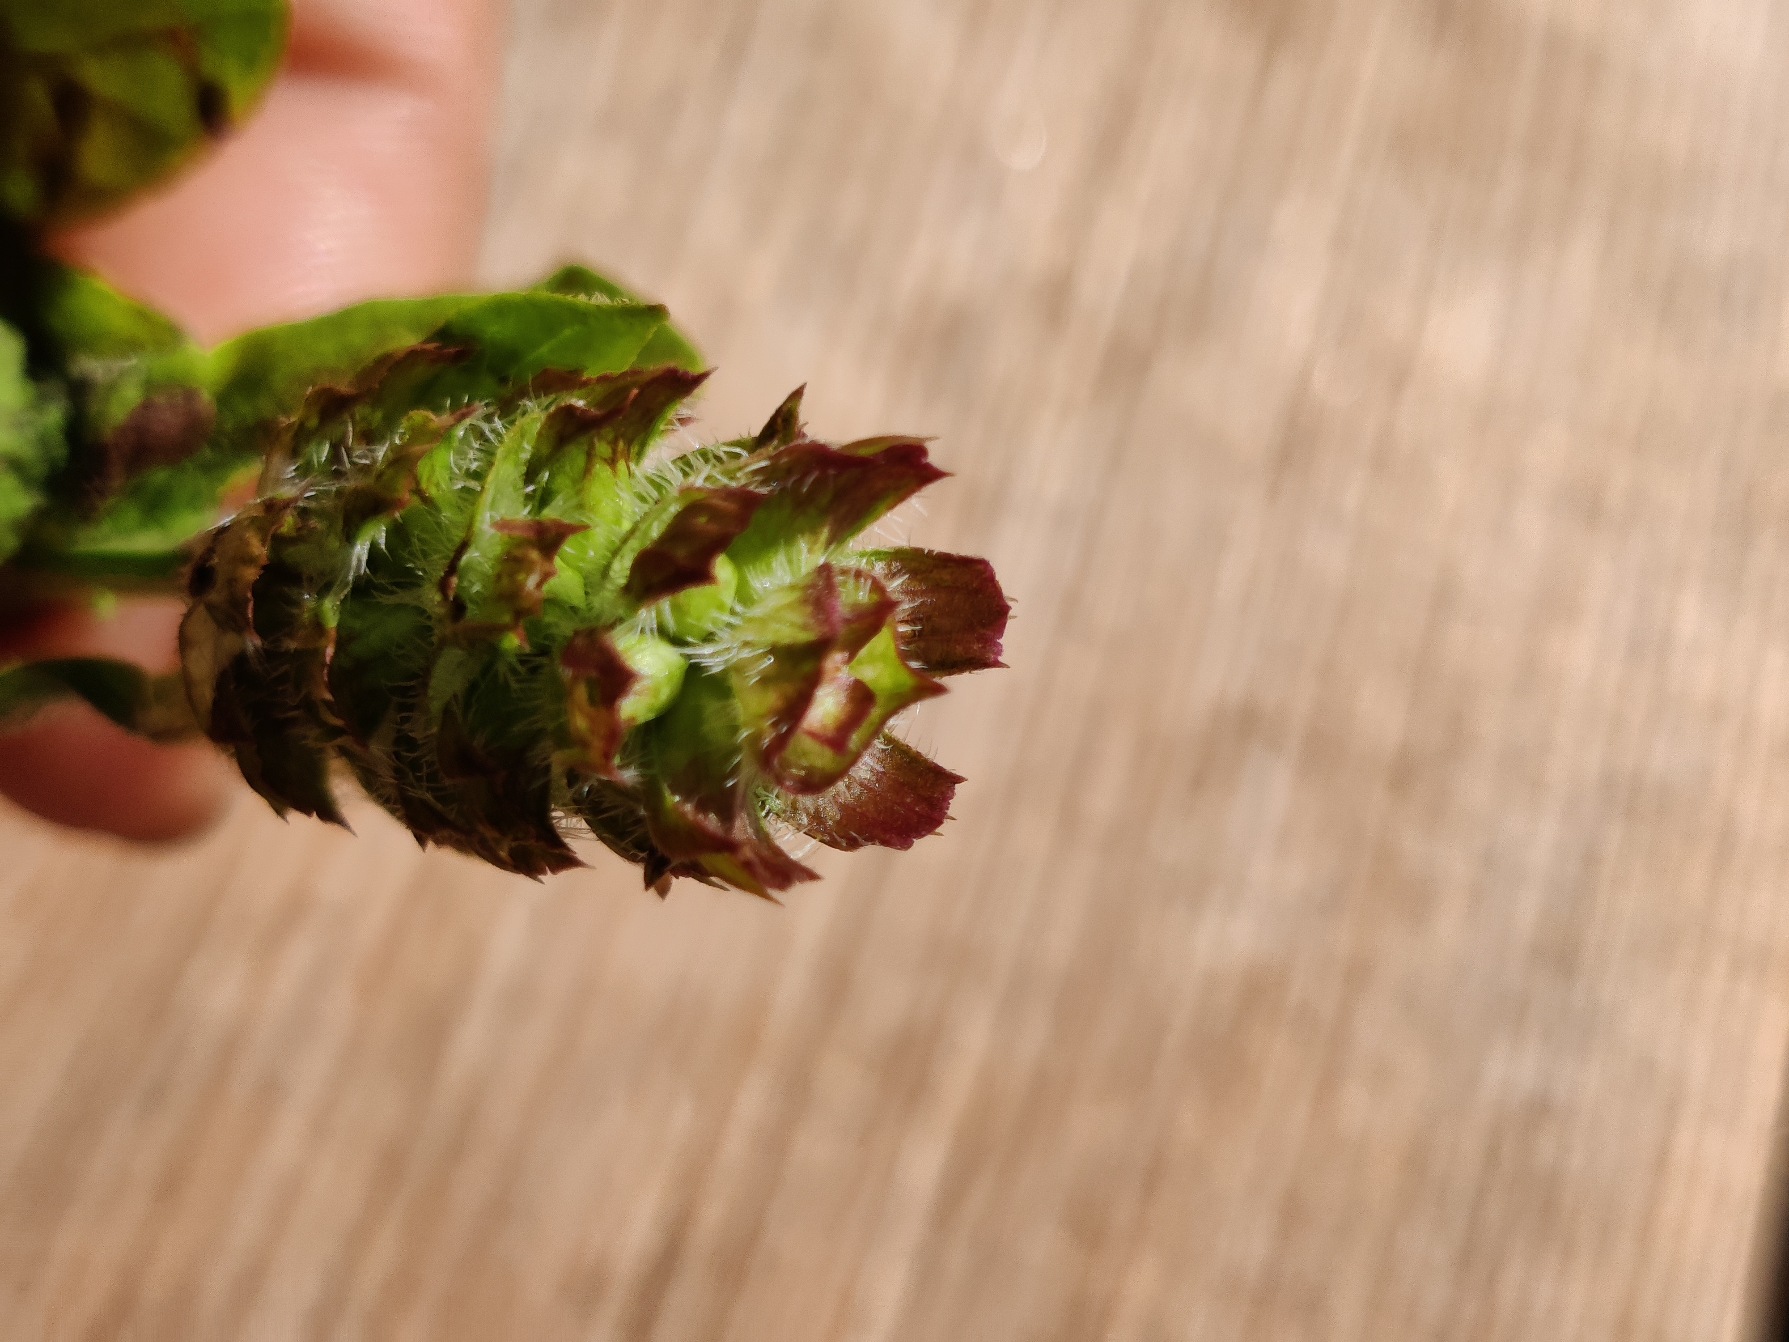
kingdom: Plantae
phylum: Tracheophyta
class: Magnoliopsida
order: Lamiales
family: Lamiaceae
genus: Prunella
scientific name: Prunella vulgaris
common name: Almindelig brunelle
